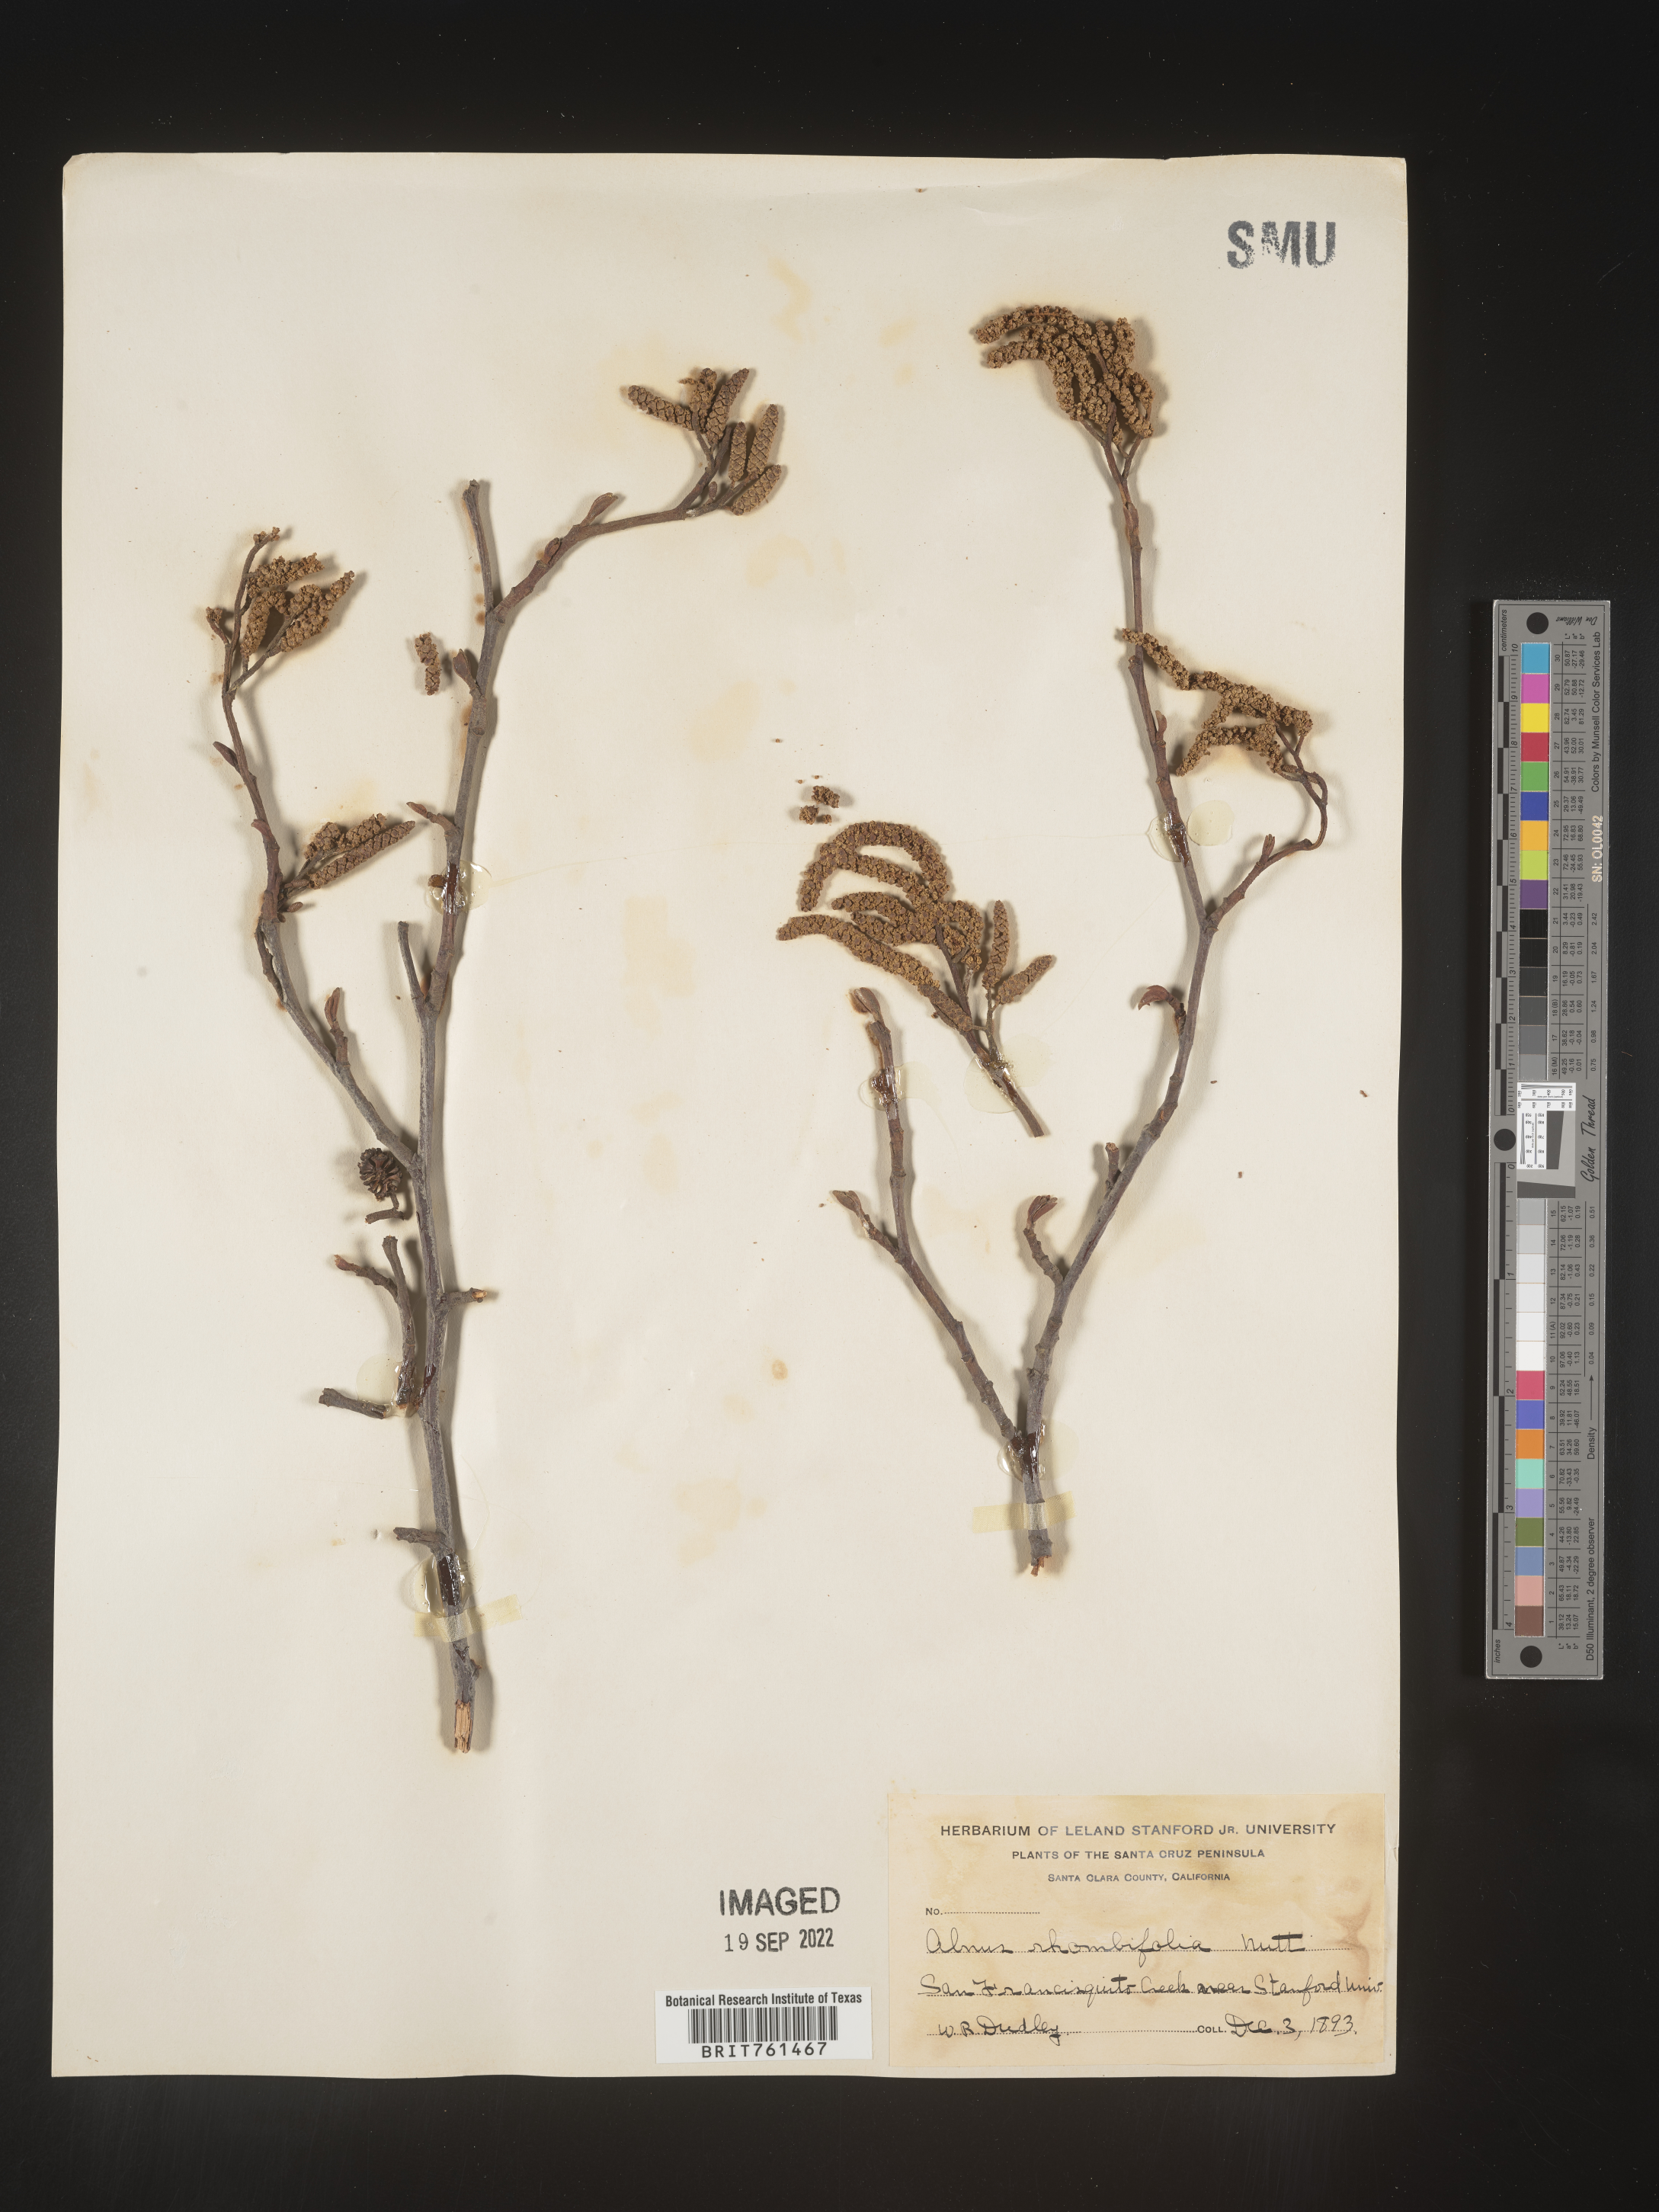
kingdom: Plantae
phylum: Tracheophyta
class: Magnoliopsida
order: Fagales
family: Betulaceae
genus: Alnus
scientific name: Alnus rhombifolia
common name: California alder
